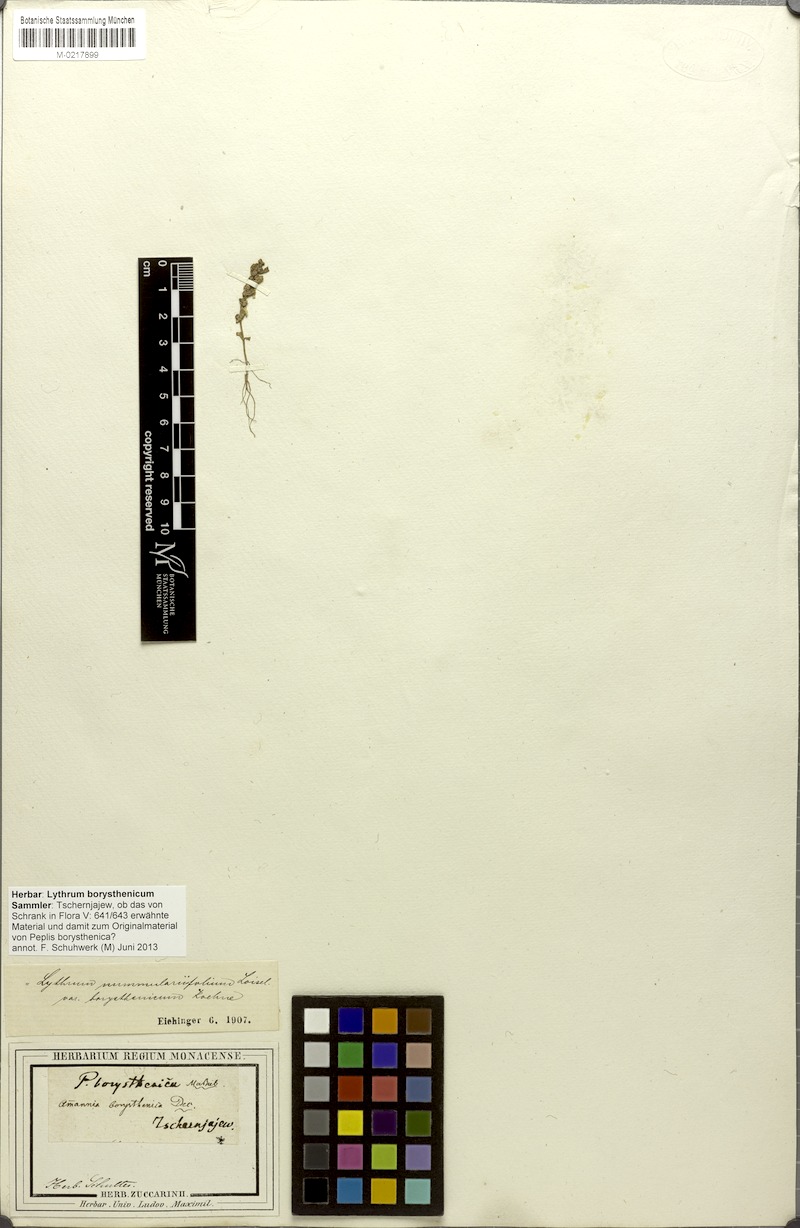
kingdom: Plantae
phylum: Tracheophyta
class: Magnoliopsida
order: Myrtales
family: Lythraceae
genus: Lythrum
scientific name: Lythrum borysthenicum
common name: Loosestrife
